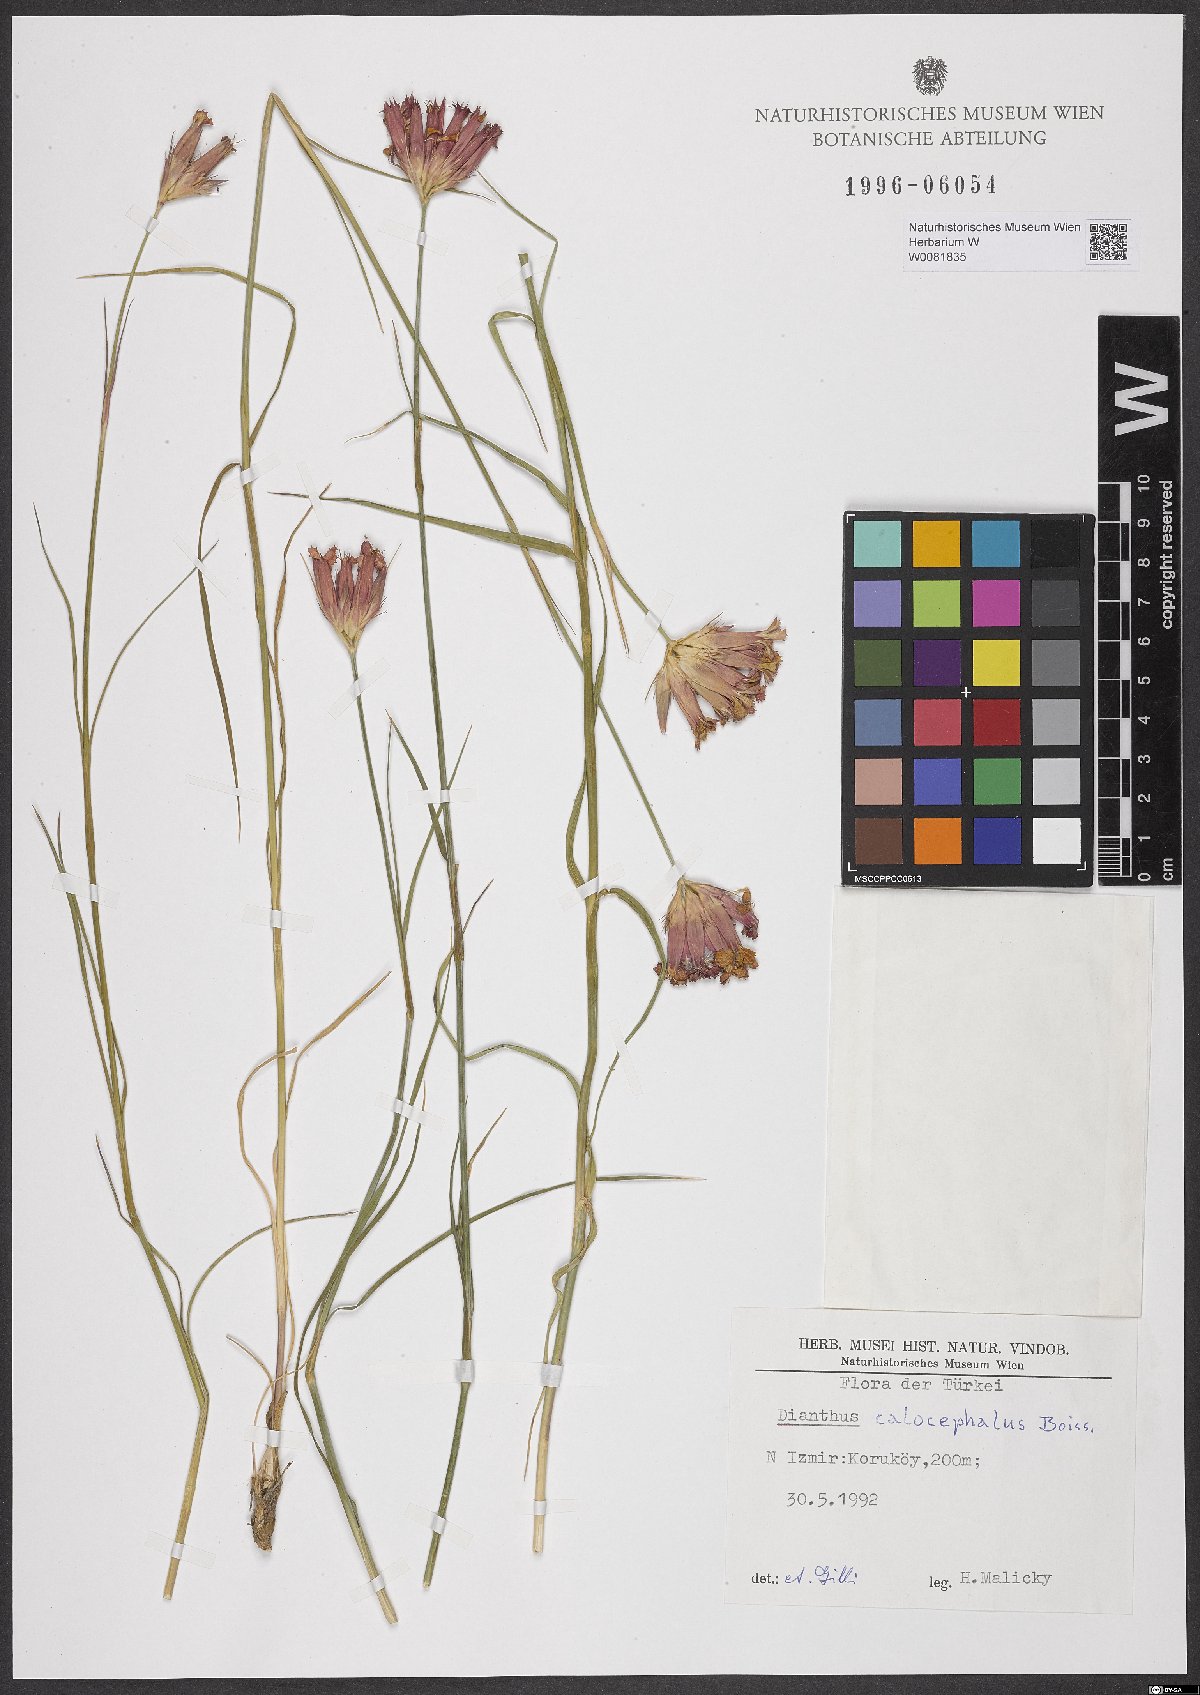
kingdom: Plantae
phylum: Tracheophyta
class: Magnoliopsida
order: Caryophyllales
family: Caryophyllaceae
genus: Dianthus
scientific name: Dianthus cruentus
